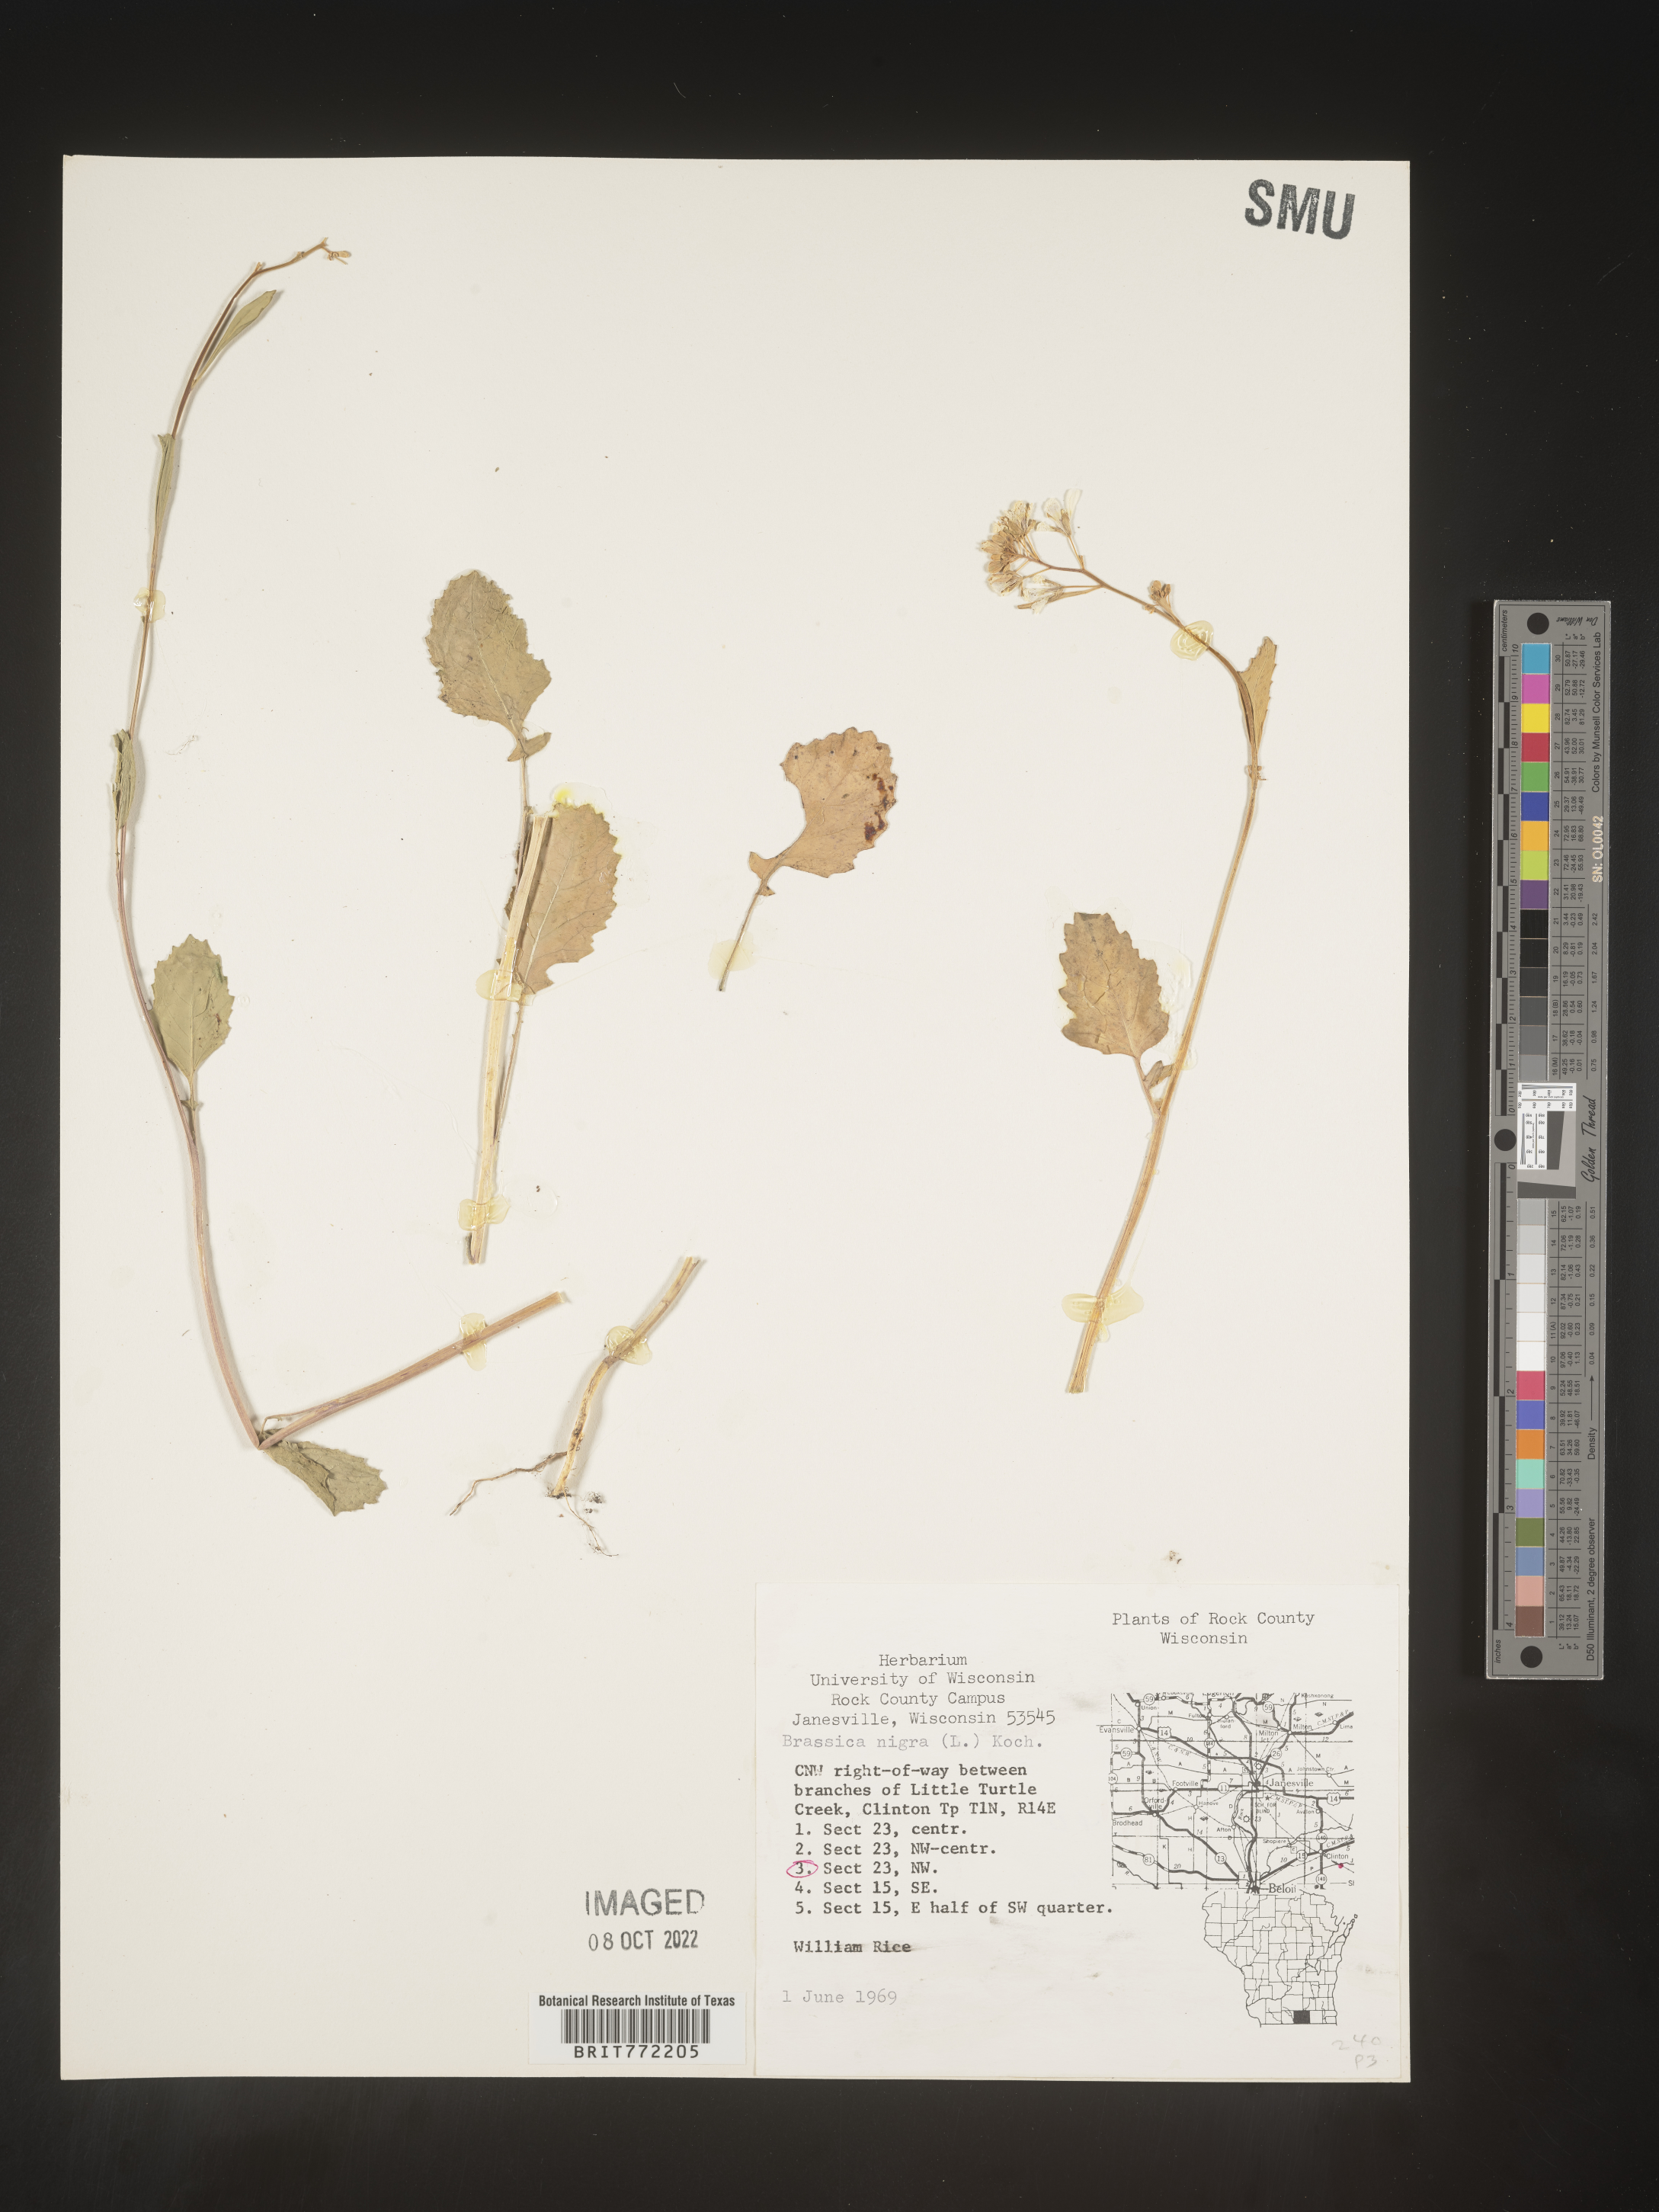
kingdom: Plantae
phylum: Tracheophyta
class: Magnoliopsida
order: Brassicales
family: Brassicaceae
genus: Brassica
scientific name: Brassica nigra
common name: Black mustard
